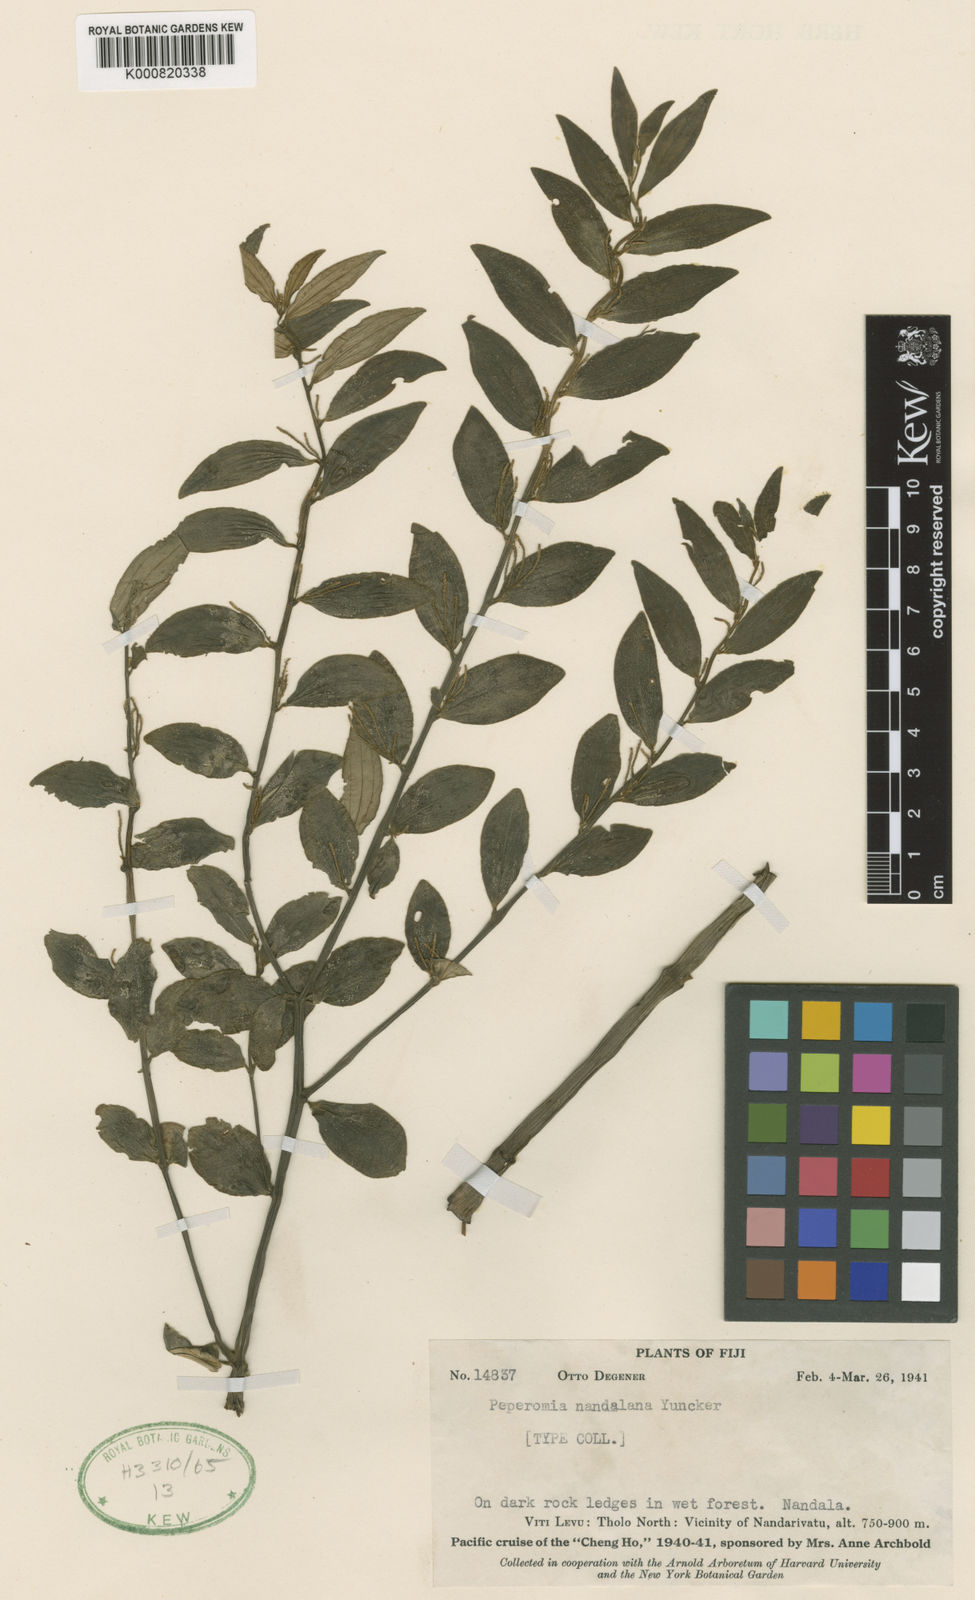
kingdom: Plantae
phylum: Tracheophyta
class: Magnoliopsida
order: Piperales
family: Piperaceae
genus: Peperomia
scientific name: Peperomia nandalana
